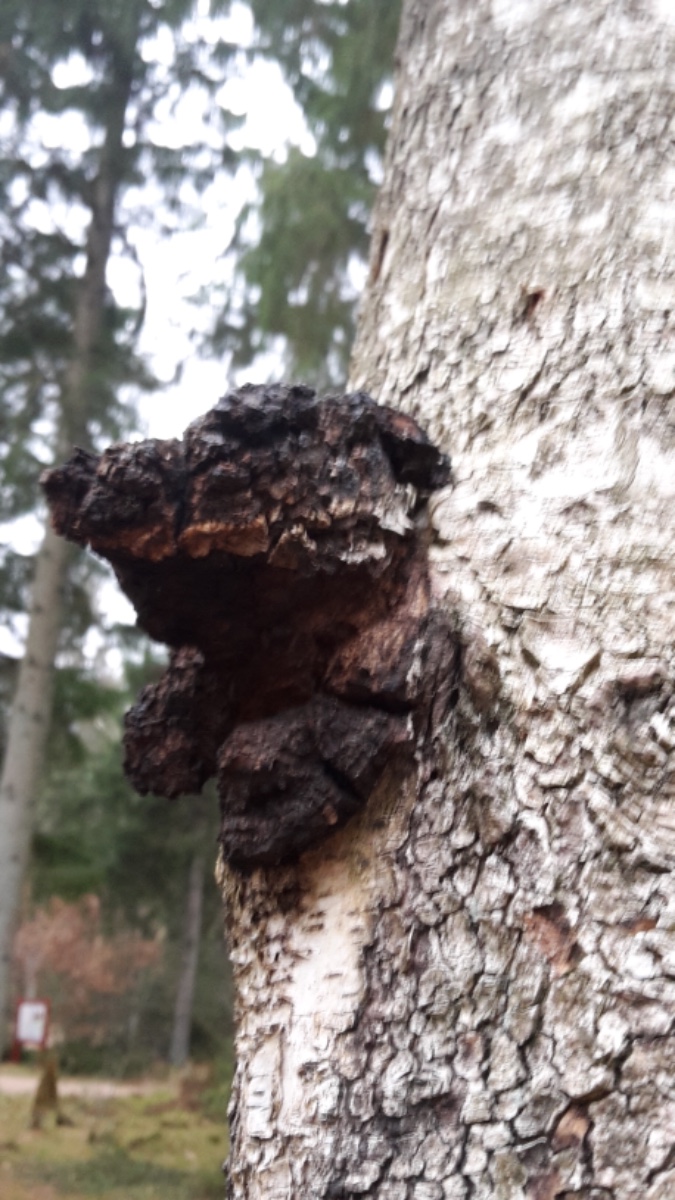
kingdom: Fungi
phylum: Basidiomycota
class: Agaricomycetes
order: Hymenochaetales
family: Hymenochaetaceae
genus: Inonotus
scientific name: Inonotus obliquus
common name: birke-spejlporesvamp
